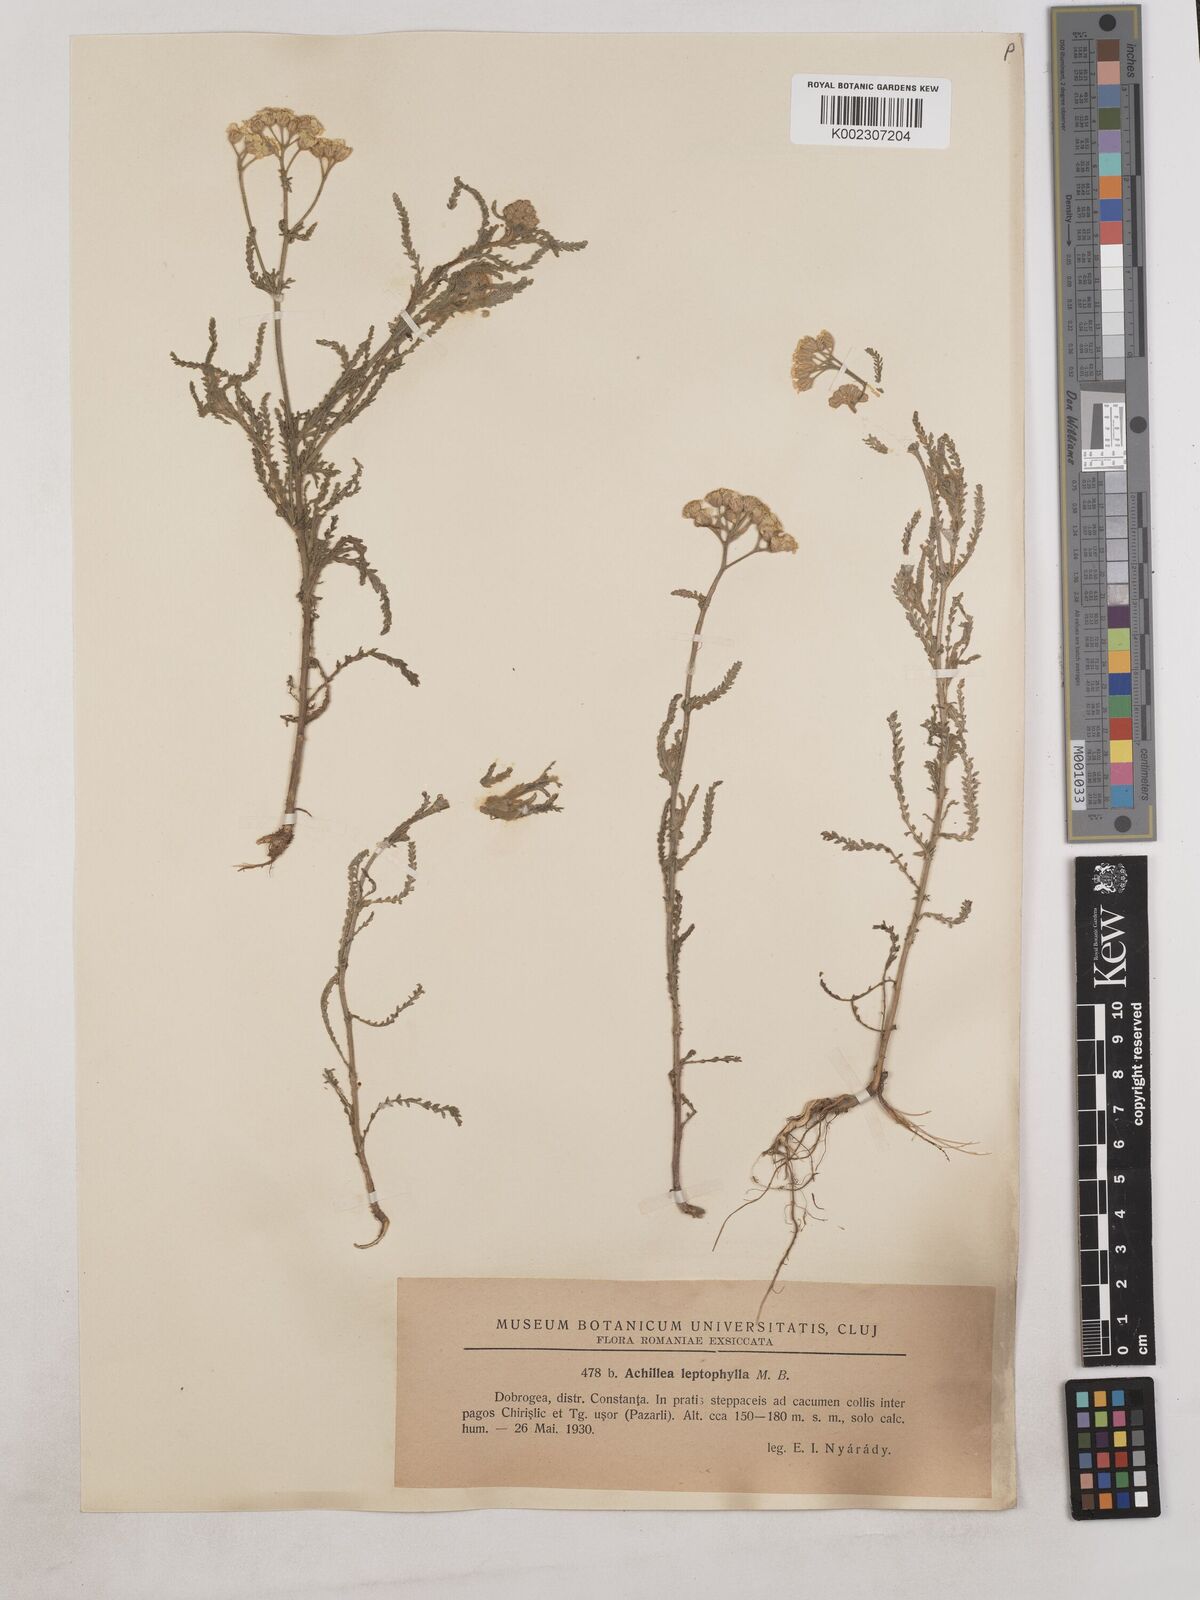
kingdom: Plantae
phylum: Tracheophyta
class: Magnoliopsida
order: Asterales
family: Asteraceae
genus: Achillea
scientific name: Achillea leptophylla
